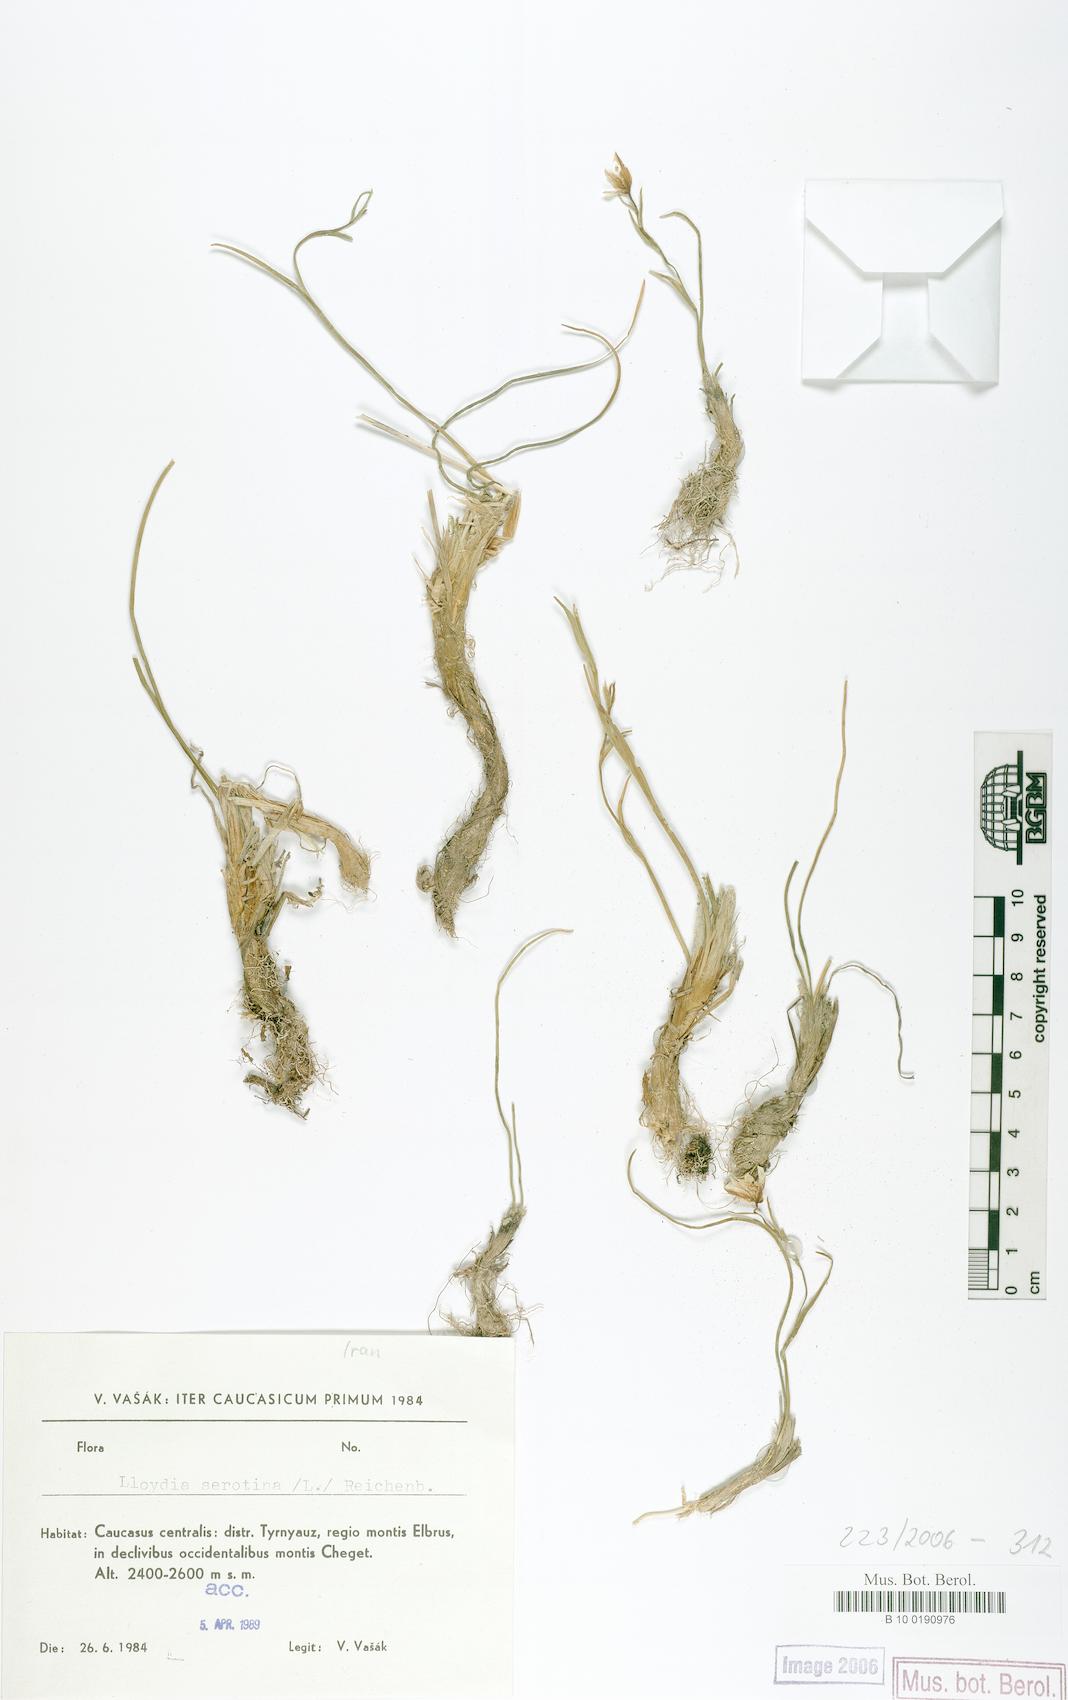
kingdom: Plantae
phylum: Tracheophyta
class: Liliopsida
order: Liliales
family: Liliaceae
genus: Gagea
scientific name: Gagea serotina
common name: Snowdon lily
